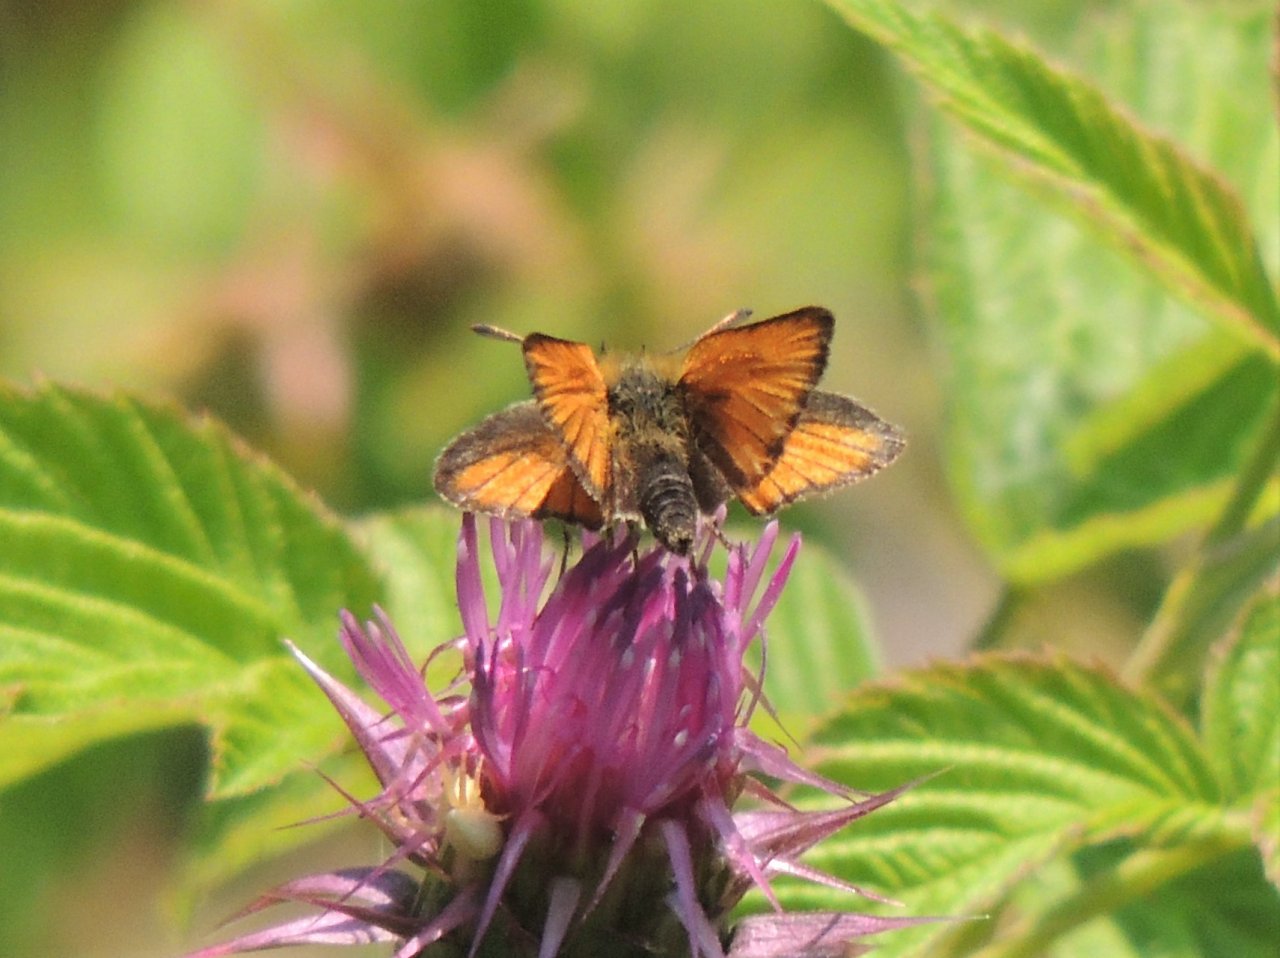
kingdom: Animalia
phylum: Arthropoda
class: Insecta
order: Lepidoptera
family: Hesperiidae
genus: Ochlodes
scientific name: Ochlodes sylvanoides
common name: Woodland Skipper
